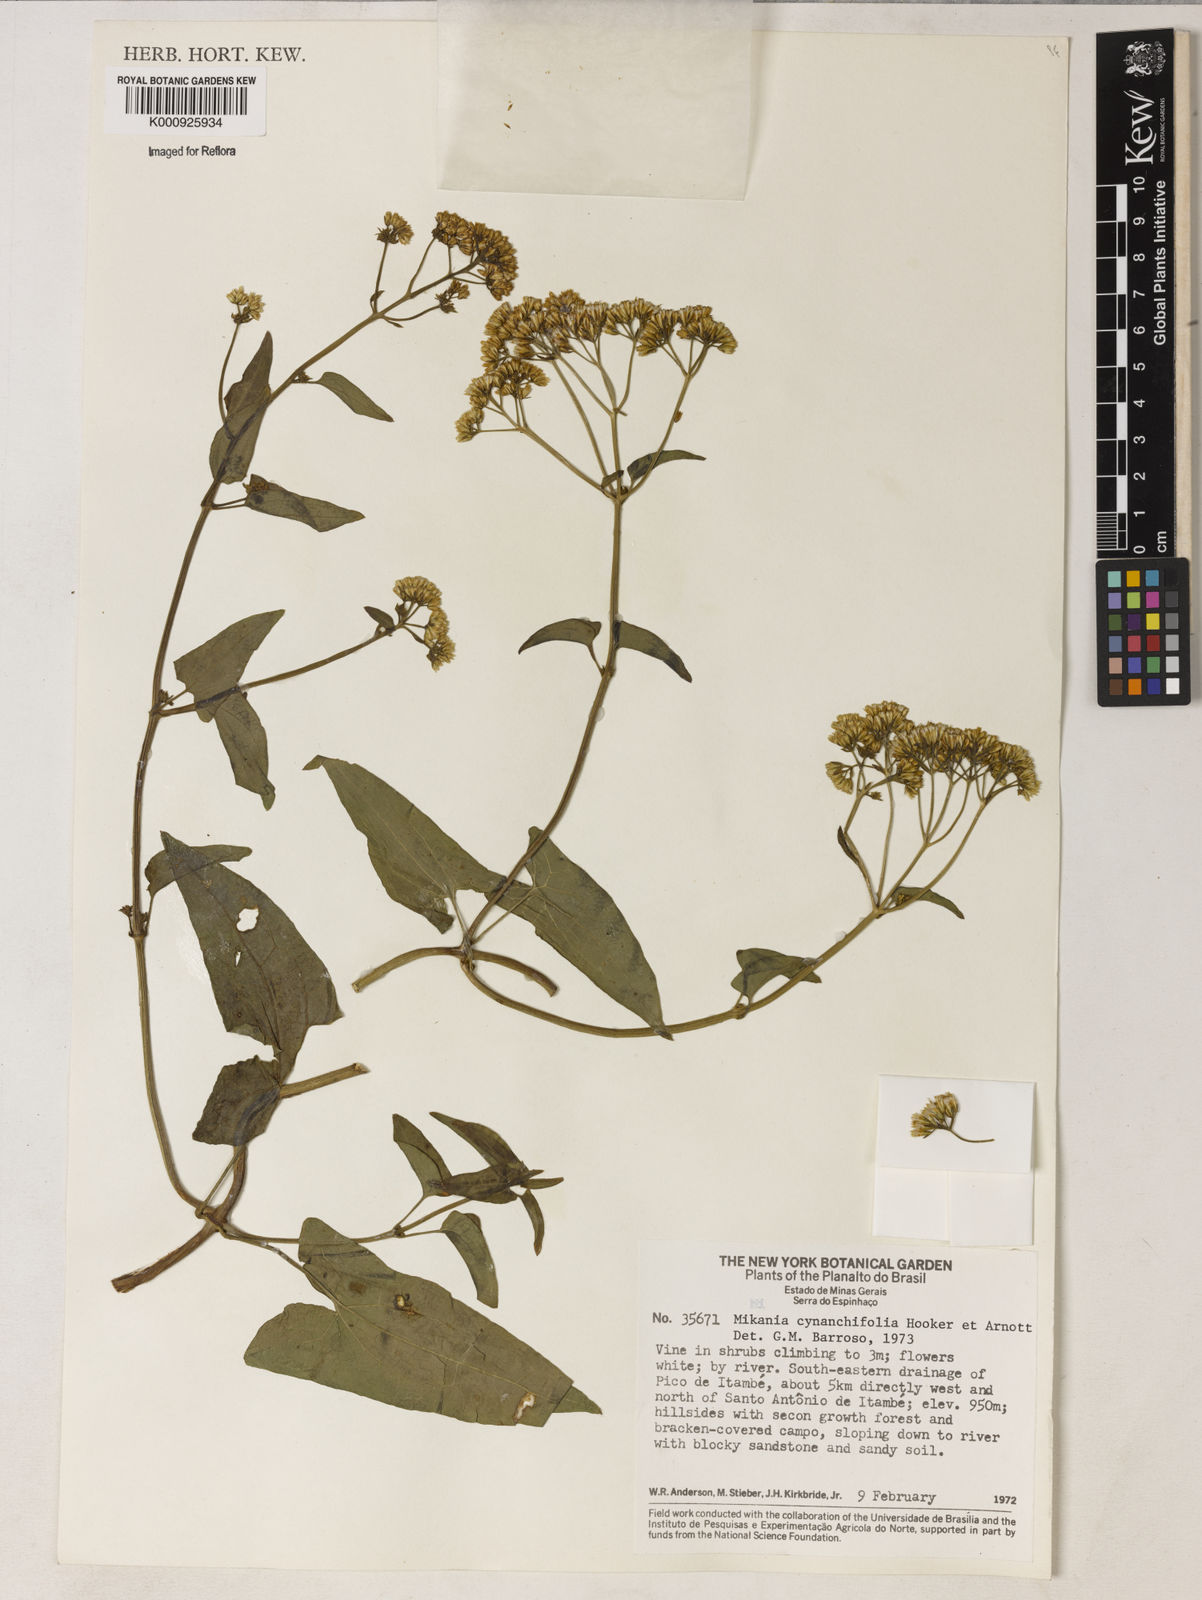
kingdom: Plantae
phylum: Tracheophyta
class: Magnoliopsida
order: Asterales
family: Asteraceae
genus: Mikania
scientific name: Mikania scandens
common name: Climbing hempvine
